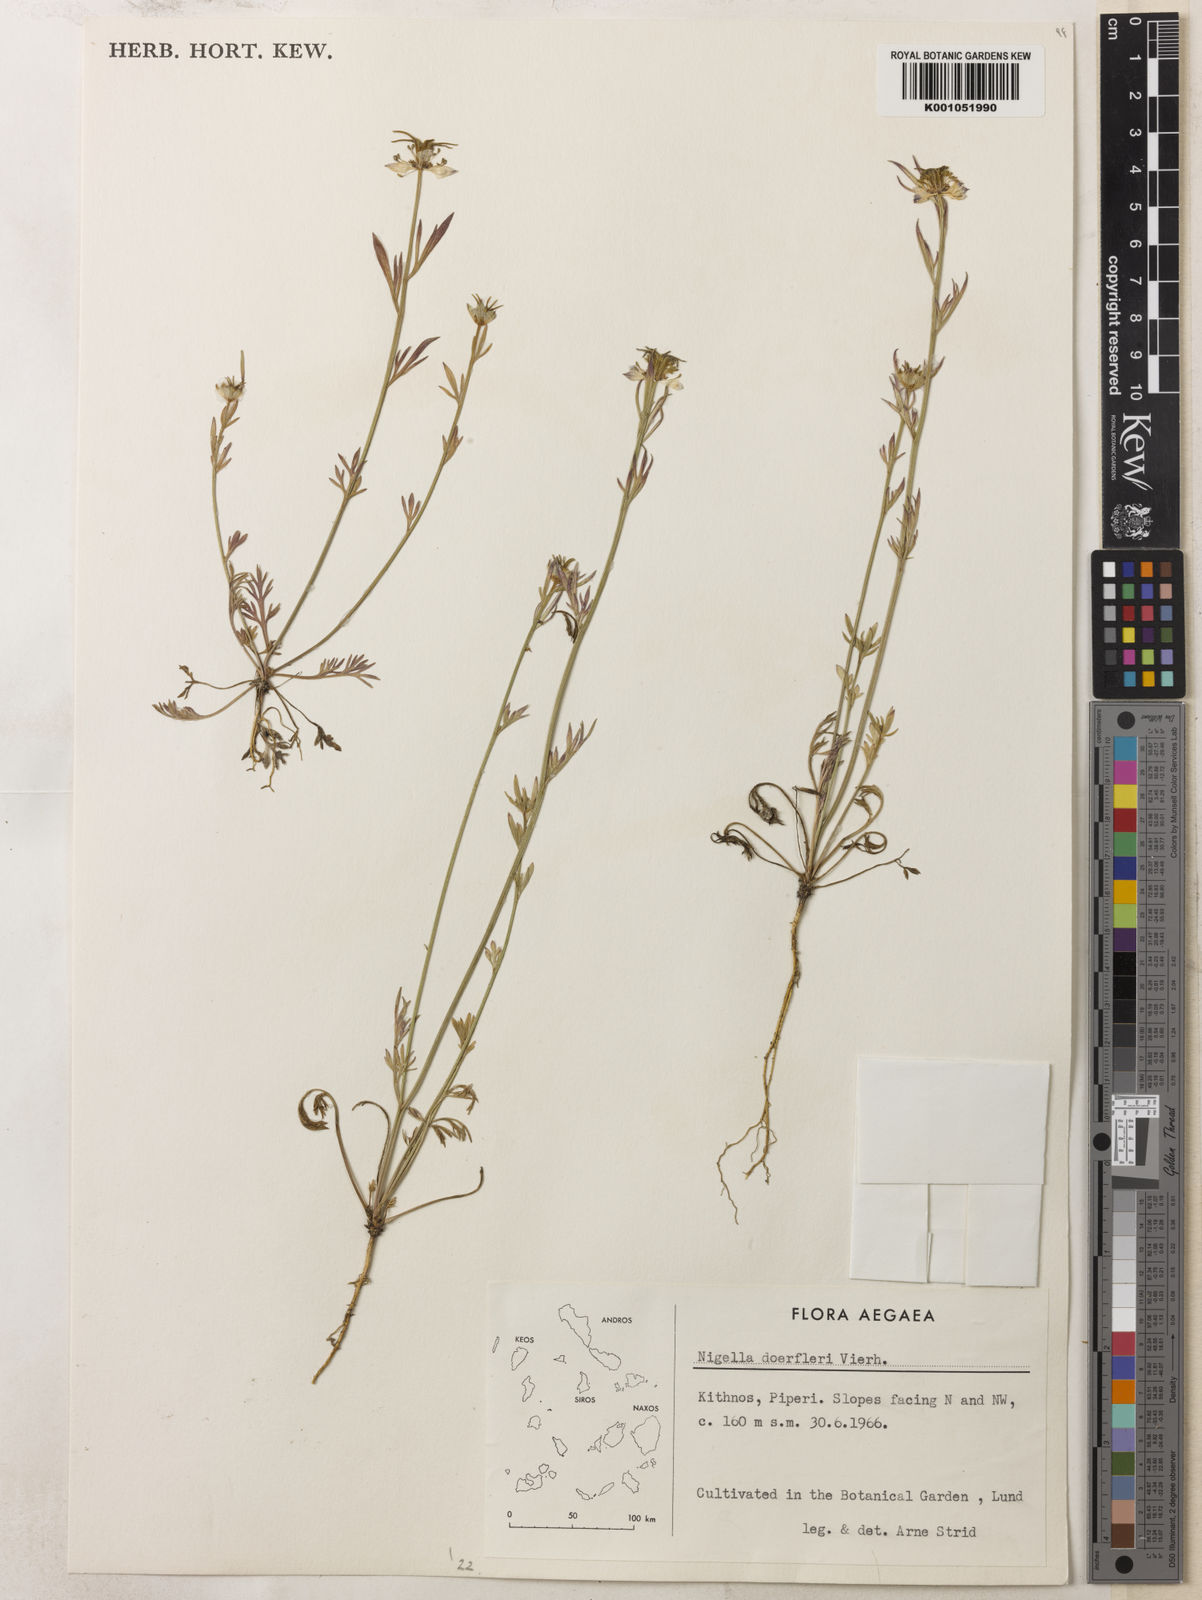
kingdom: Plantae
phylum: Tracheophyta
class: Magnoliopsida
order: Ranunculales
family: Ranunculaceae
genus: Nigella
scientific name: Nigella arvensis
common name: Wild fennel-flower
